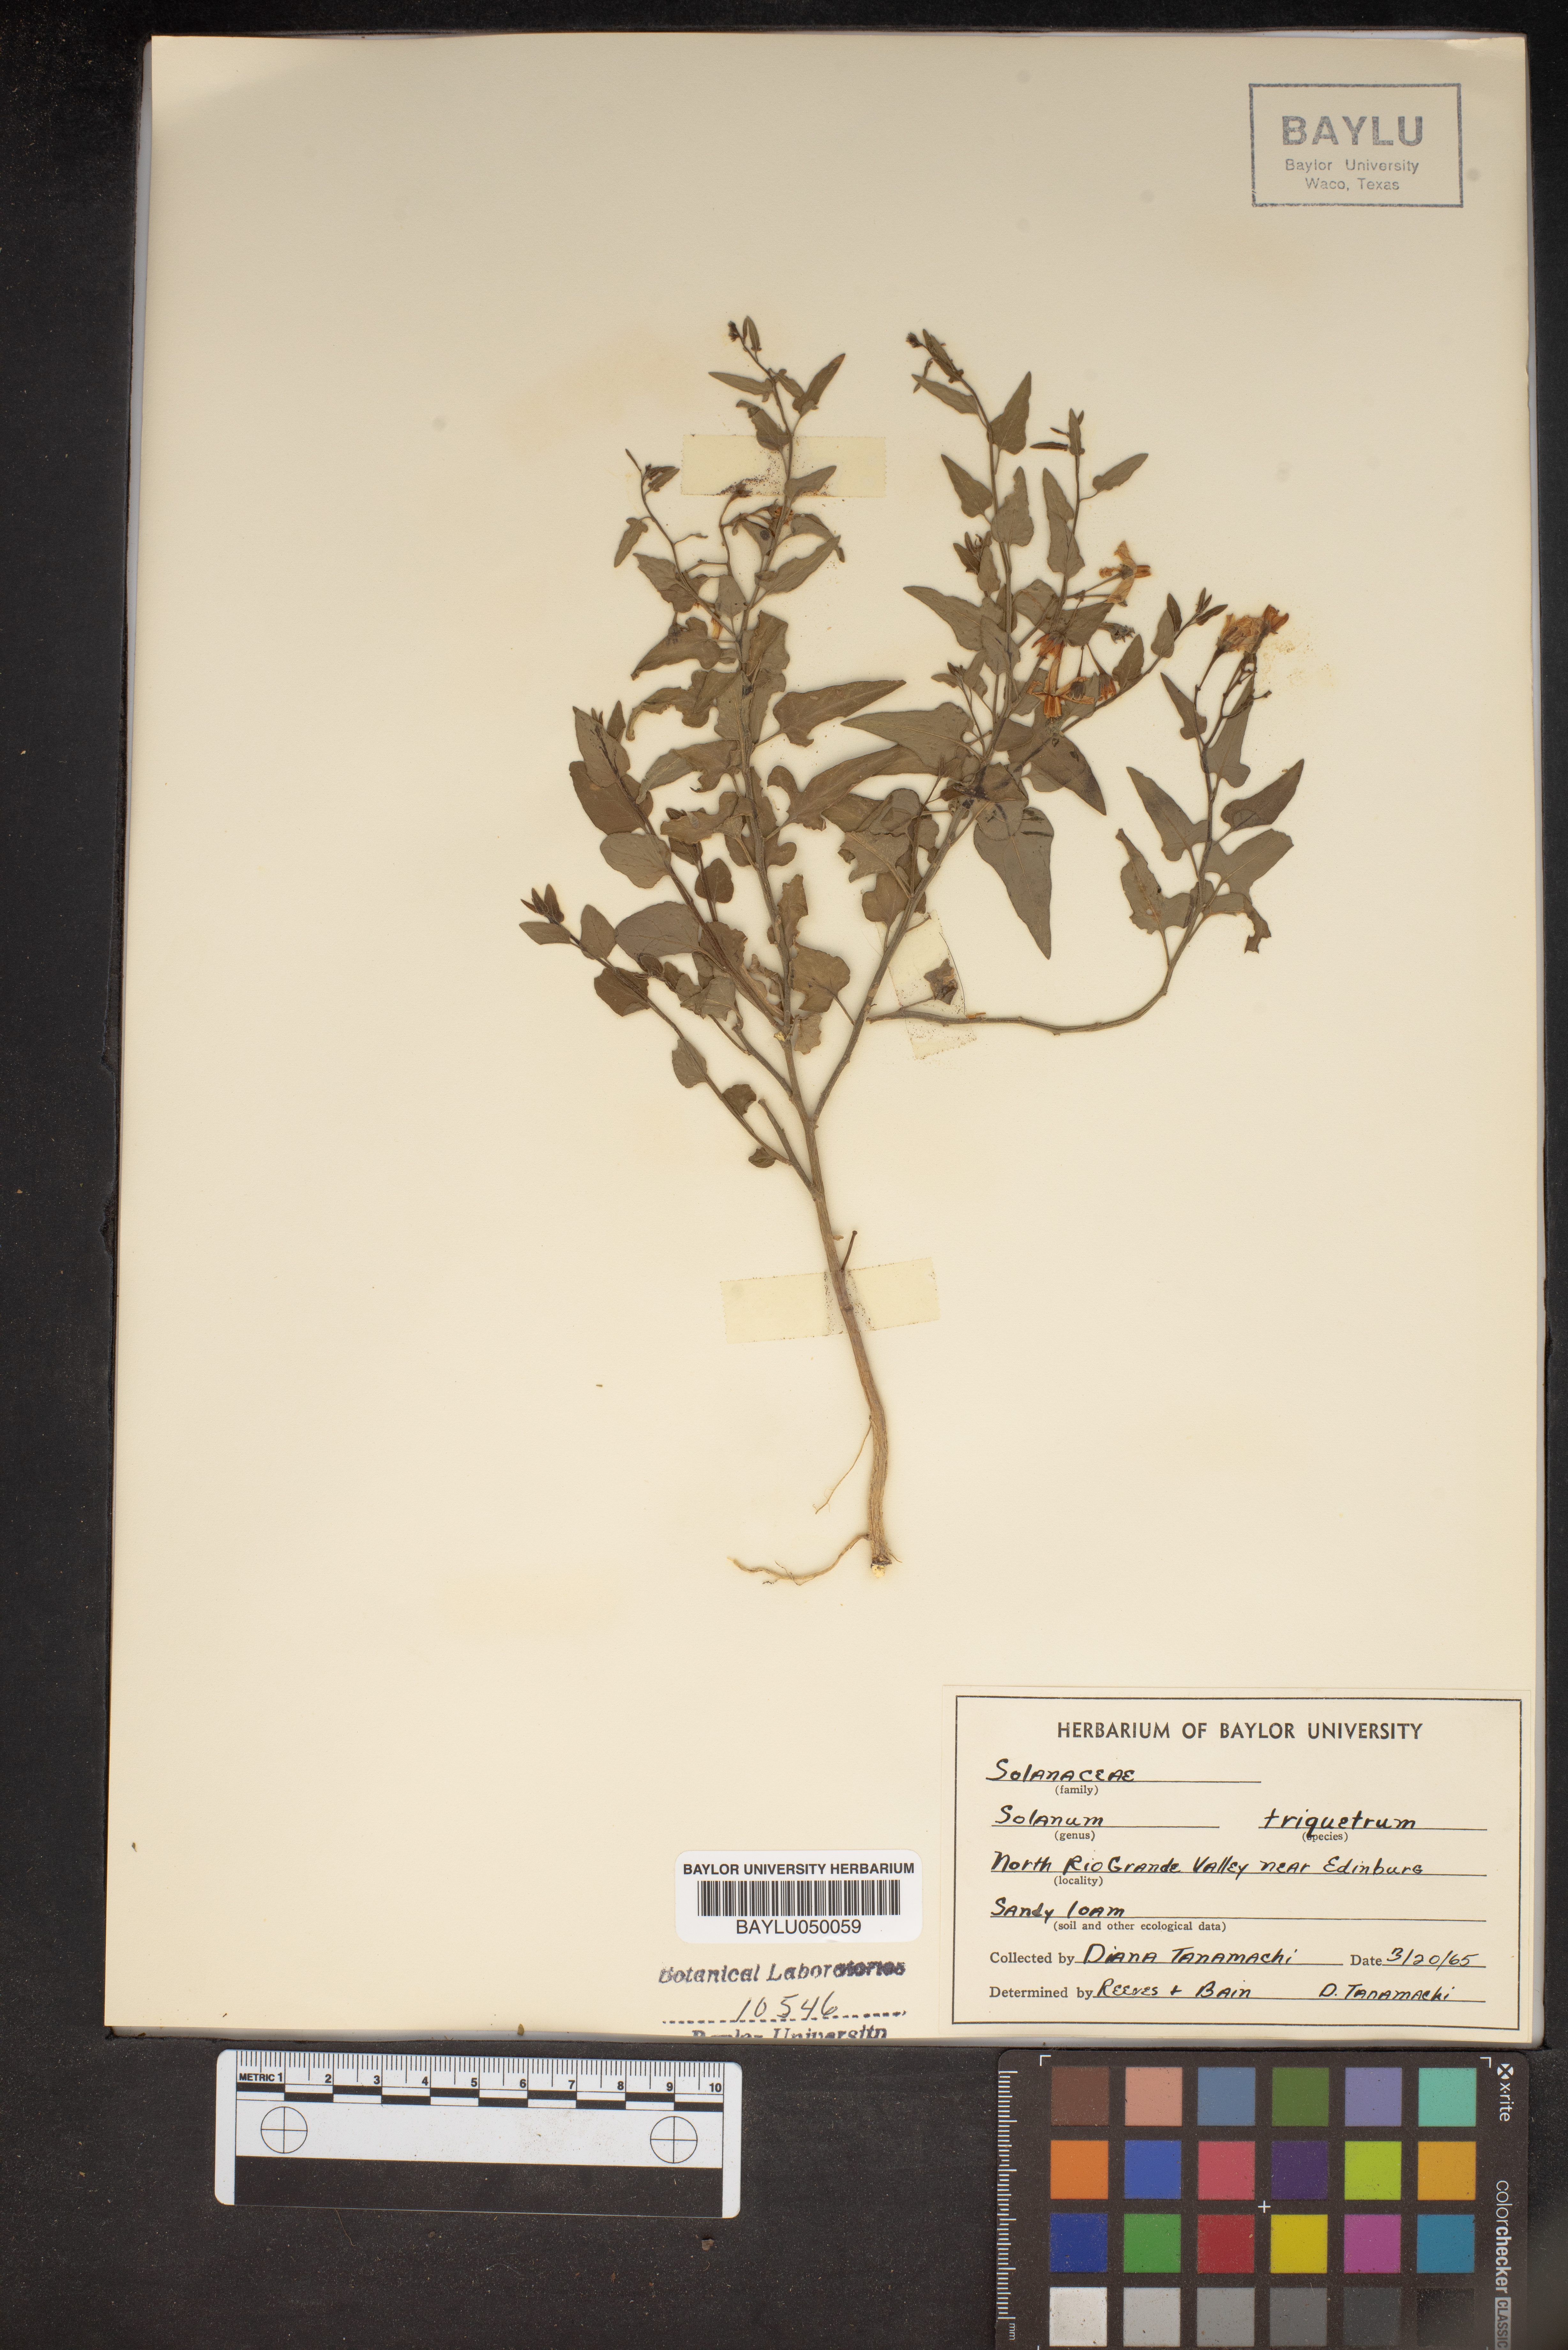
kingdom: Plantae
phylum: Tracheophyta
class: Magnoliopsida
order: Solanales
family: Solanaceae
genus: Solanum
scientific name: Solanum triquetrum
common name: Texas nightshade
